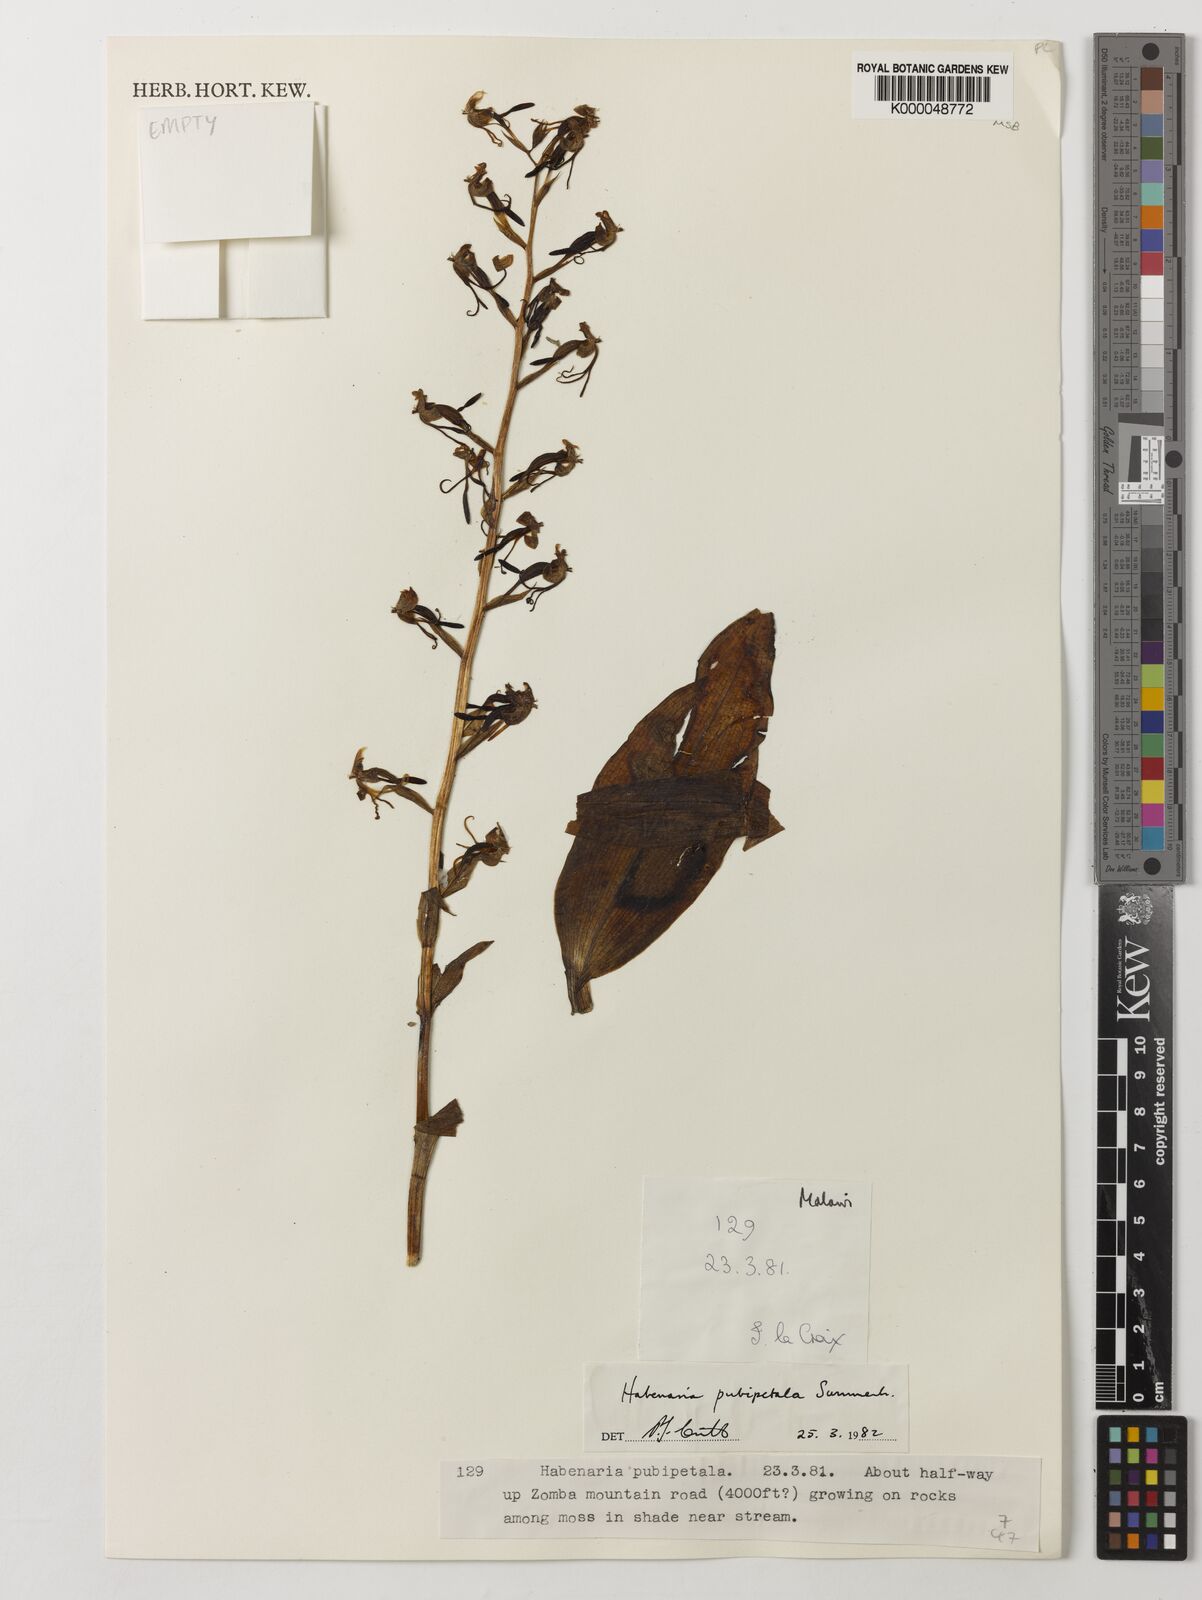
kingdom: Plantae
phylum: Tracheophyta
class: Liliopsida
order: Asparagales
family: Orchidaceae
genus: Habenaria
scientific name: Habenaria pubipetala
